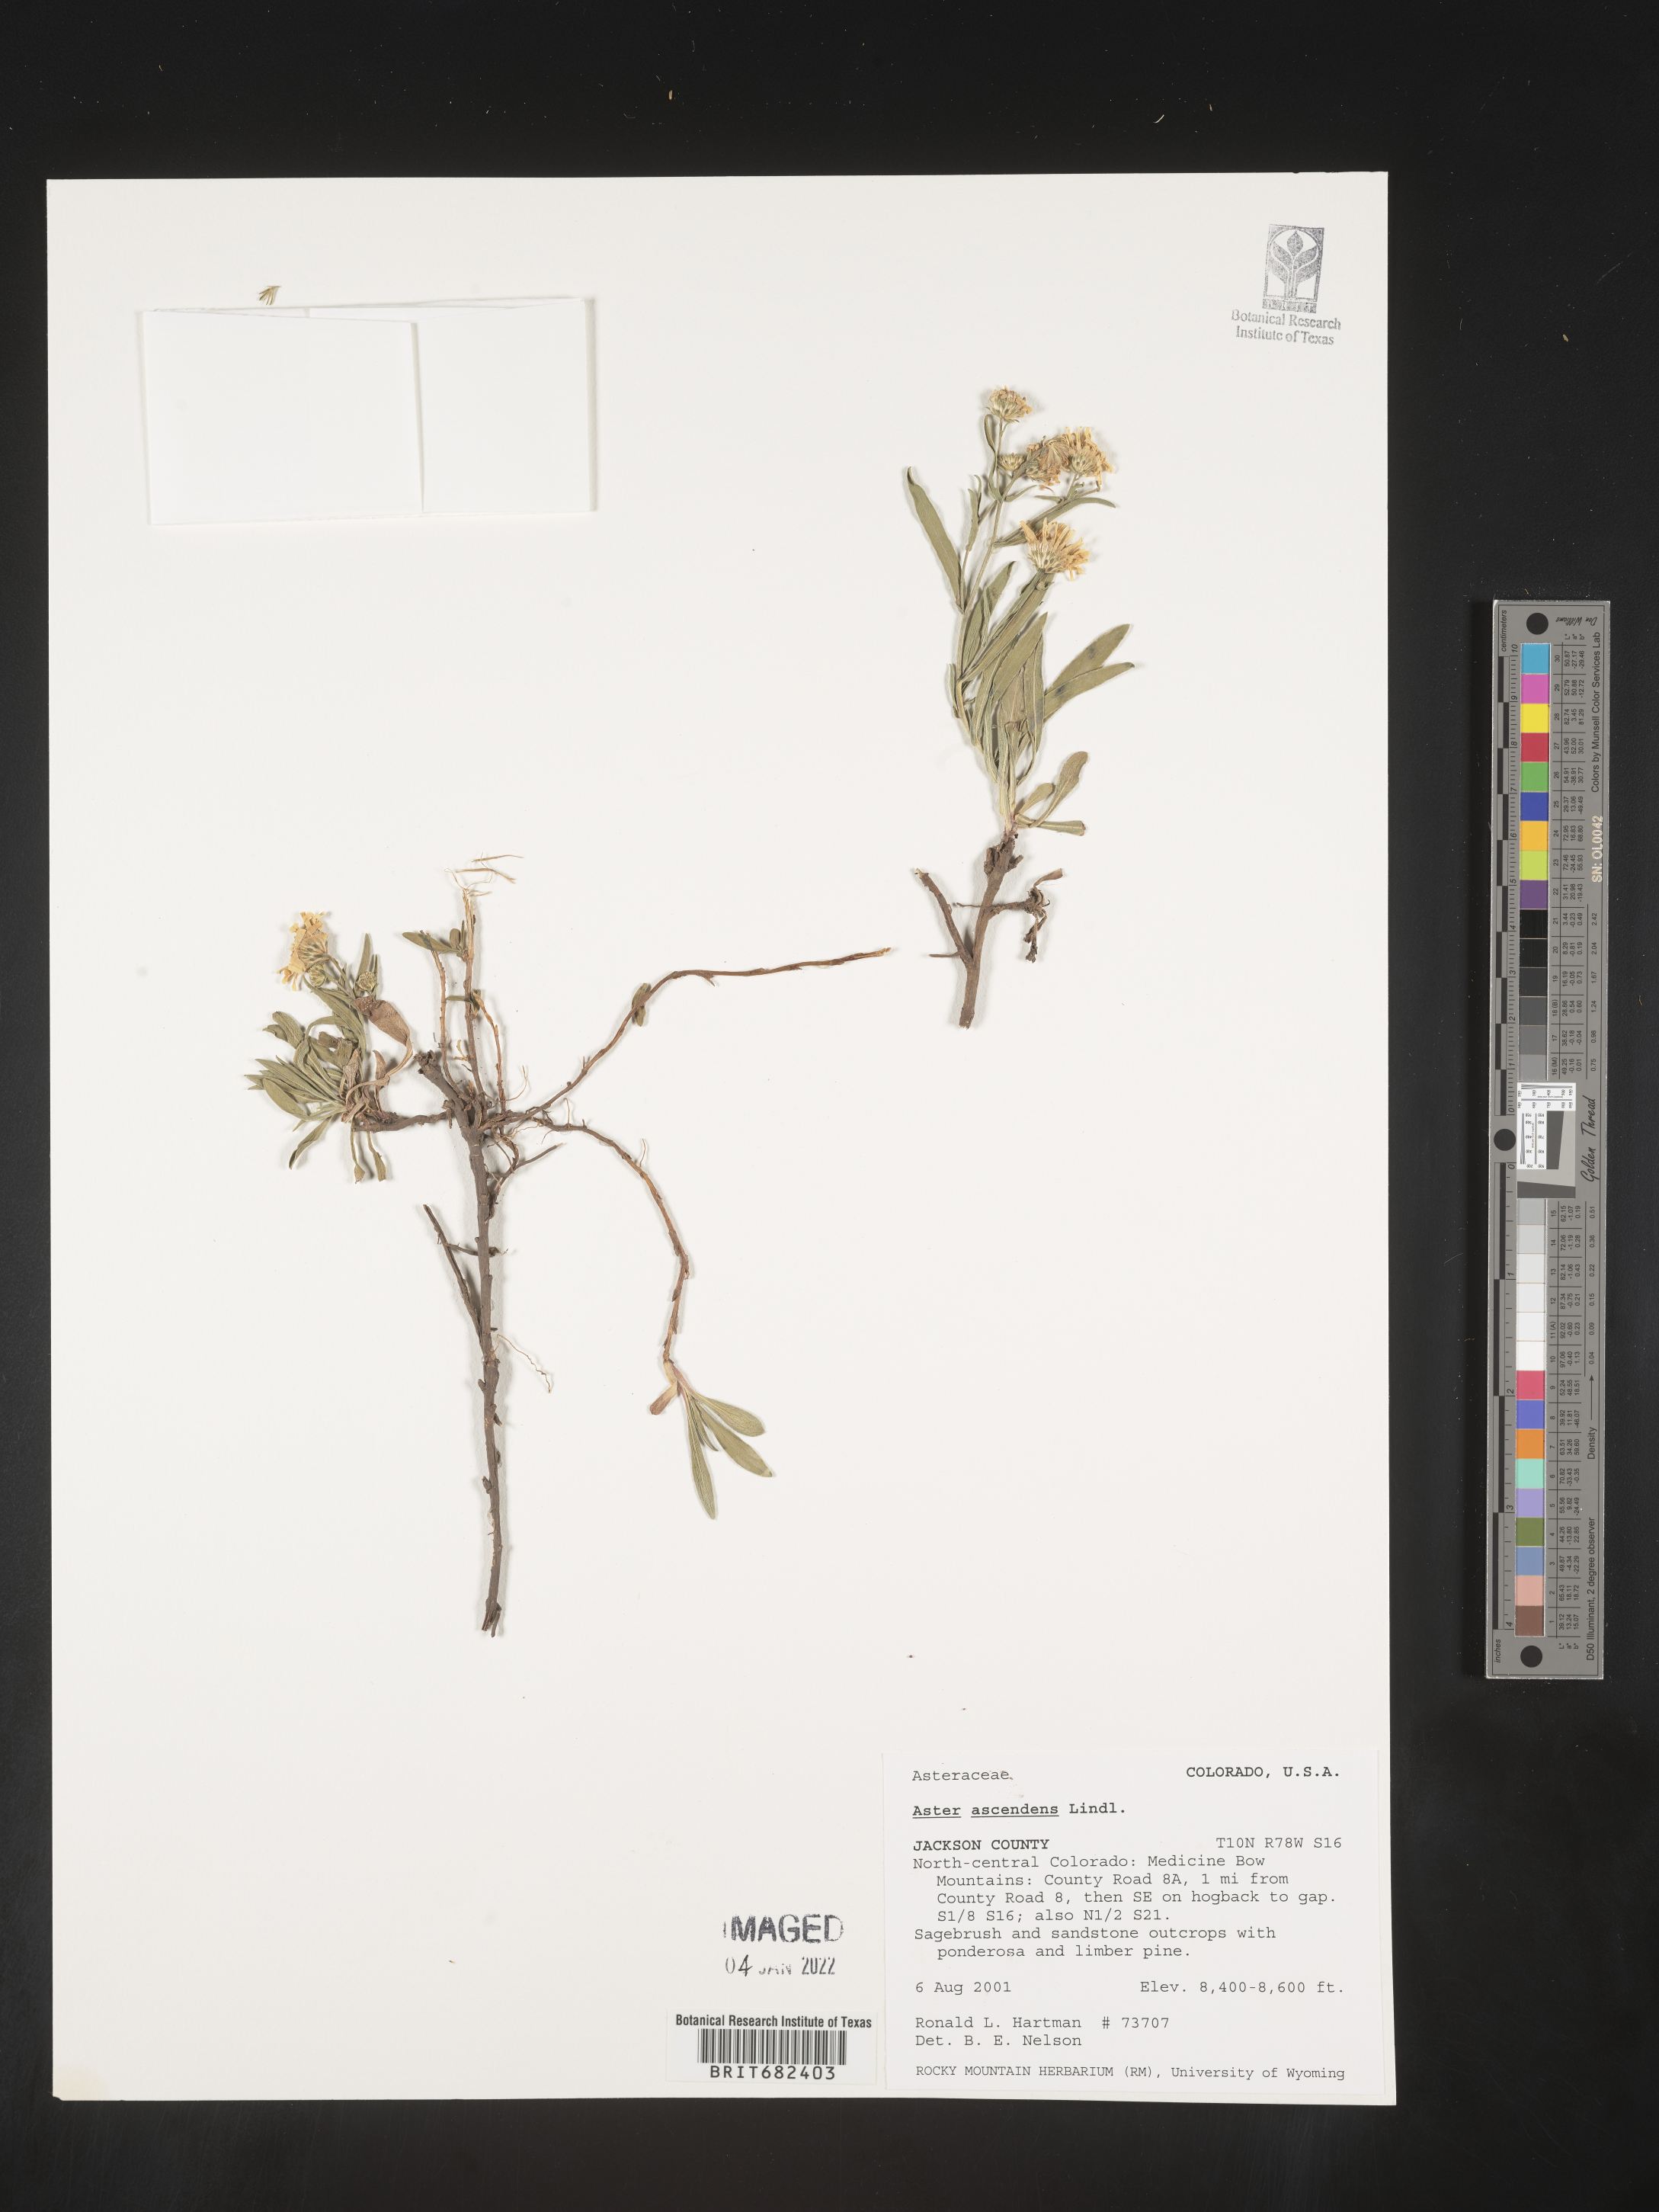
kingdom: Plantae
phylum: Tracheophyta
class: Magnoliopsida
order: Asterales
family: Asteraceae
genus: Aster
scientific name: Aster
